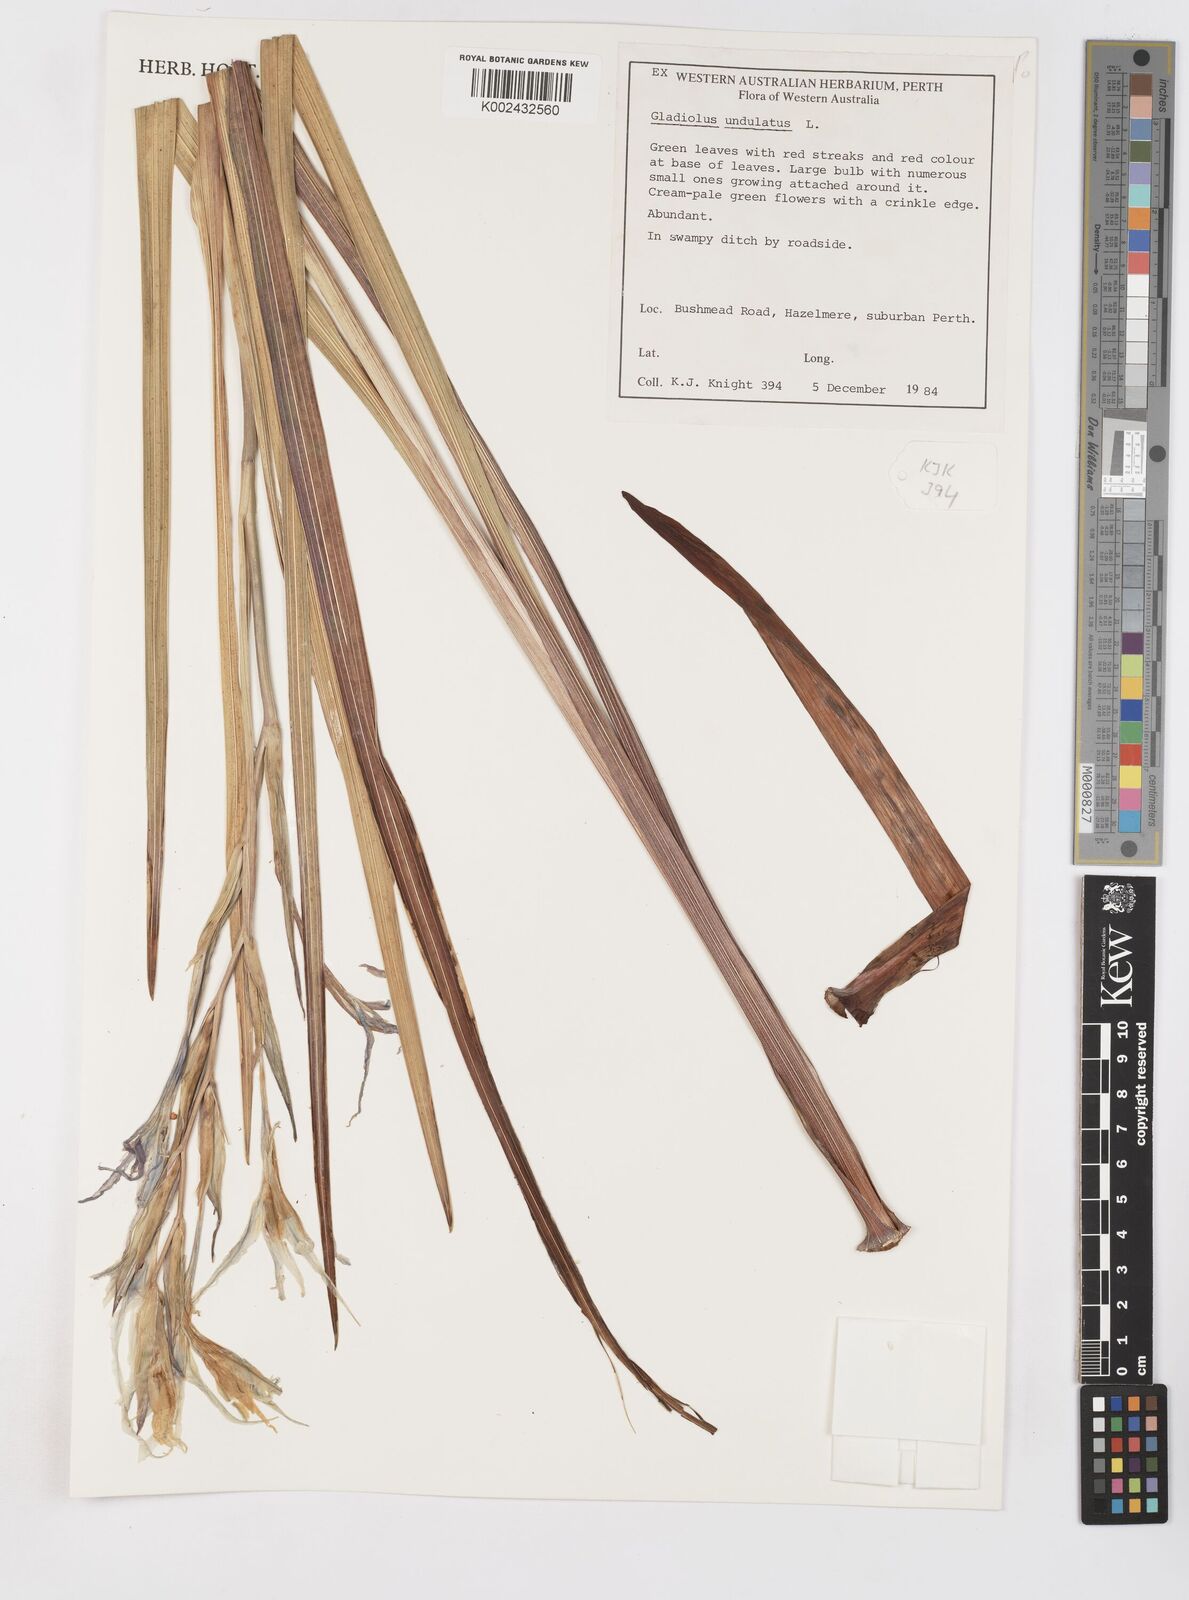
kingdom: Plantae
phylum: Tracheophyta
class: Liliopsida
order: Asparagales
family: Iridaceae
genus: Gladiolus
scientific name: Gladiolus undulatus
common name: Large painted-lady
